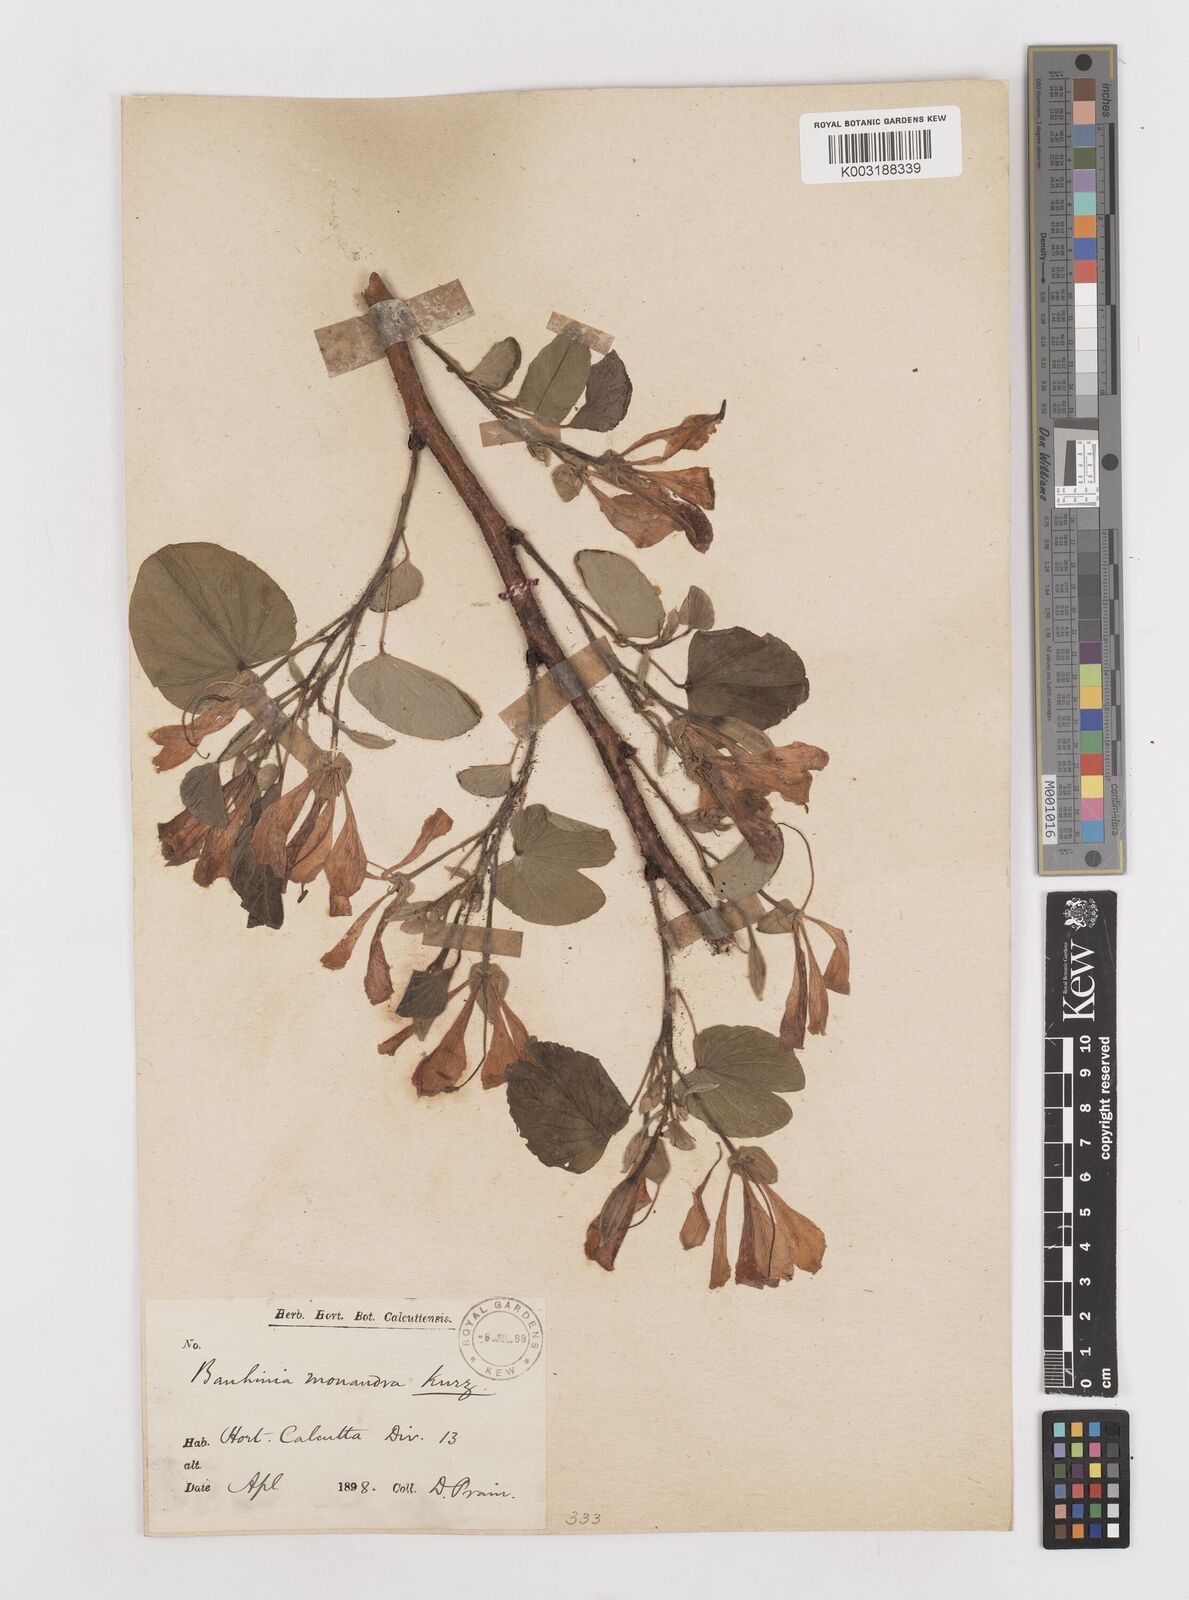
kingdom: Plantae
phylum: Tracheophyta
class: Magnoliopsida
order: Fabales
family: Fabaceae
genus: Bauhinia
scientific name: Bauhinia monandra
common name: Napoleon's plume
